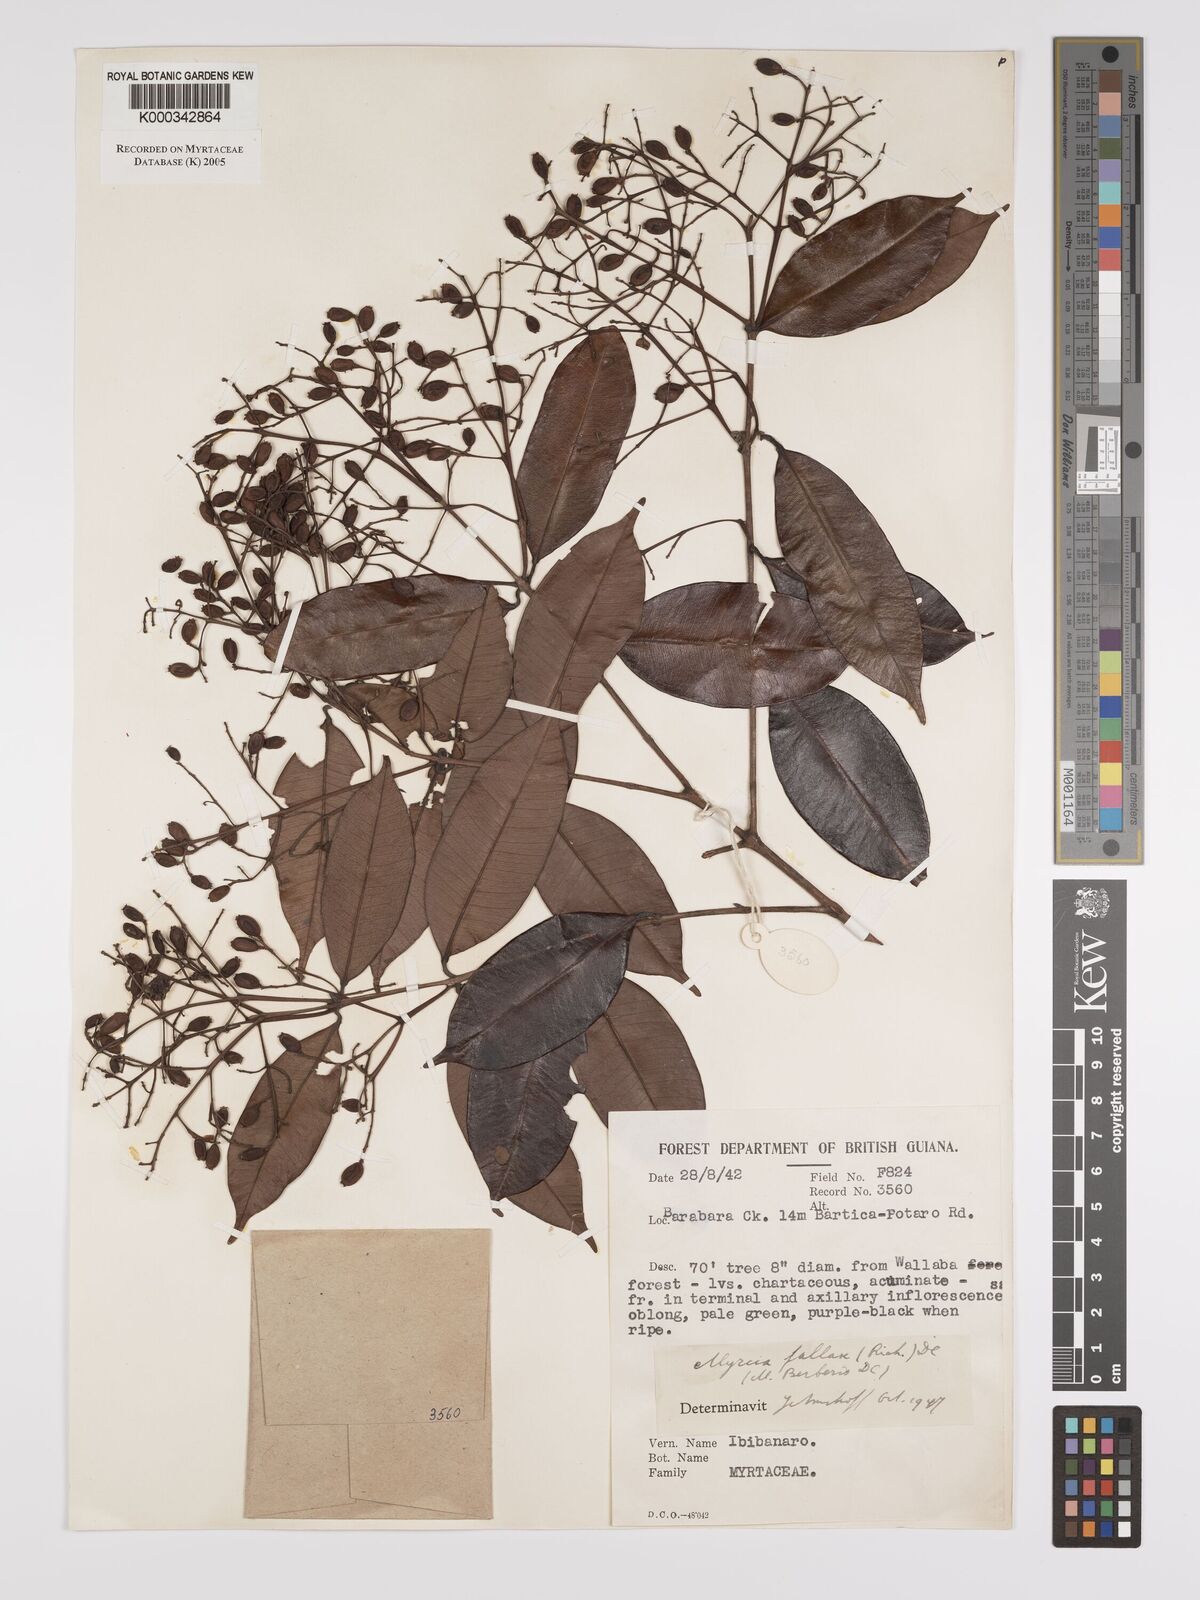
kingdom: Plantae
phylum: Tracheophyta
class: Magnoliopsida
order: Myrtales
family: Myrtaceae
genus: Myrcia
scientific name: Myrcia splendens
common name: Surinam cherry
